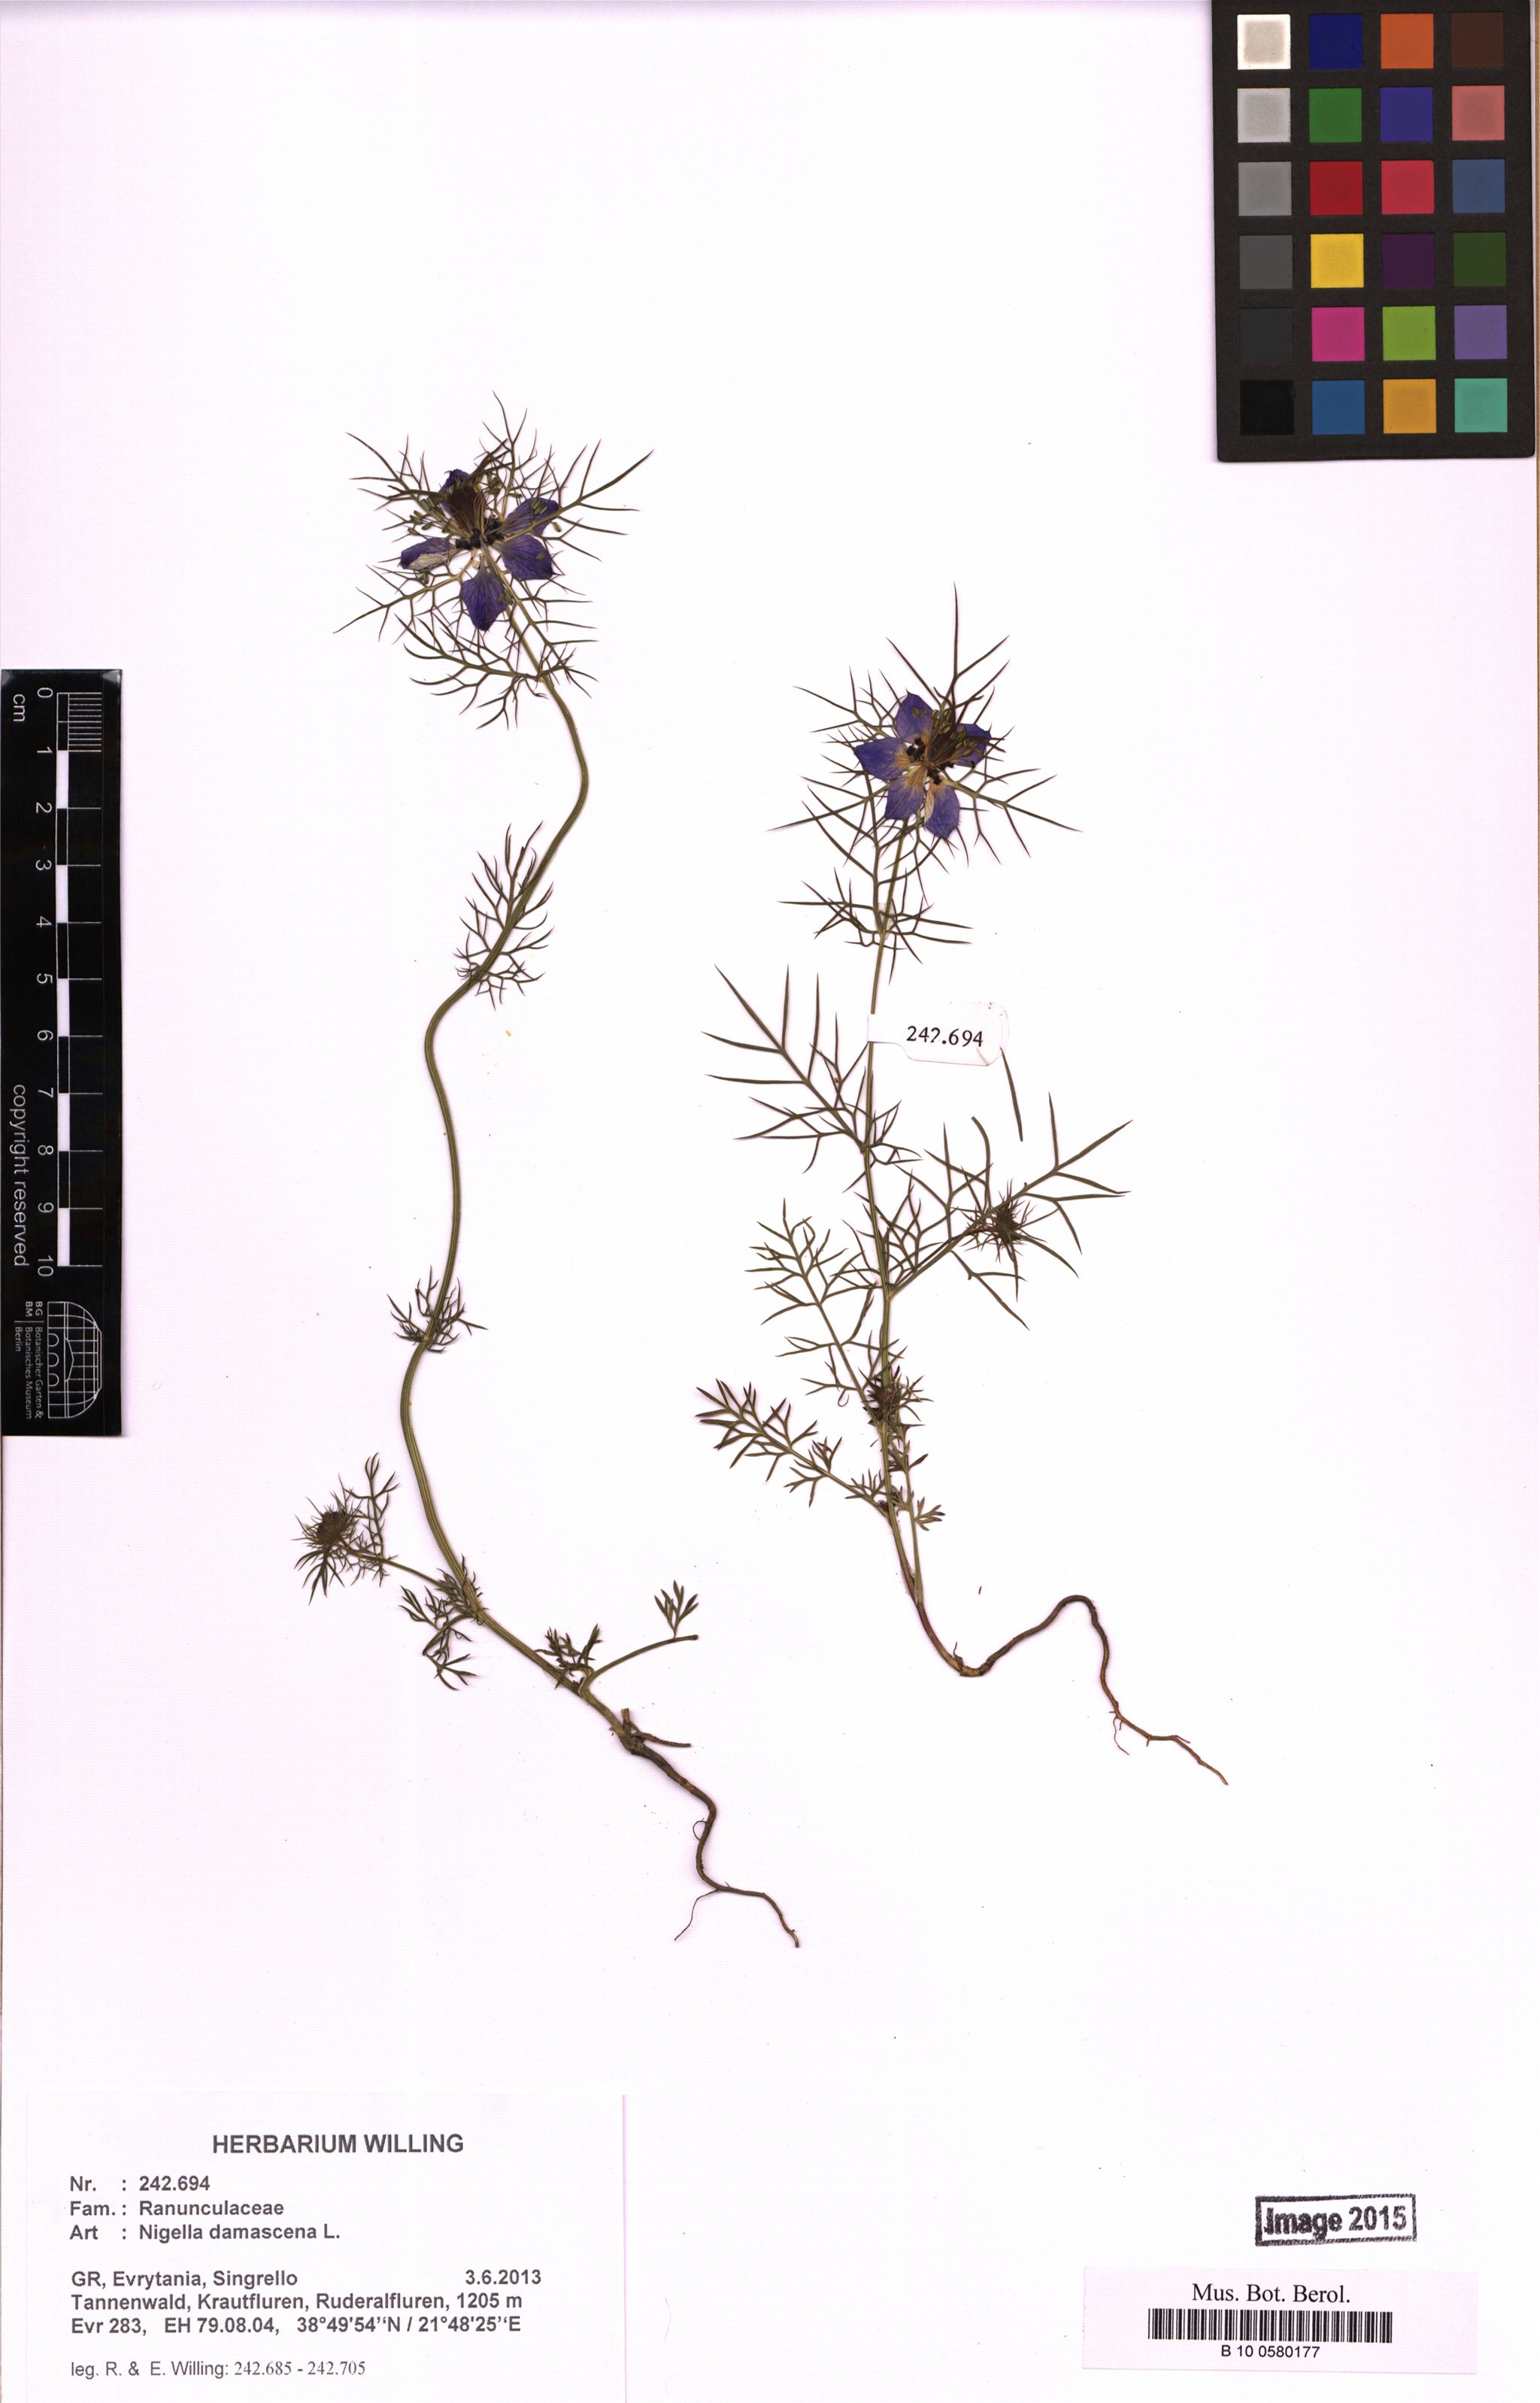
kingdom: Plantae
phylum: Tracheophyta
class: Magnoliopsida
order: Ranunculales
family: Ranunculaceae
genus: Nigella
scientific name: Nigella damascena
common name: Love-in-a-mist
